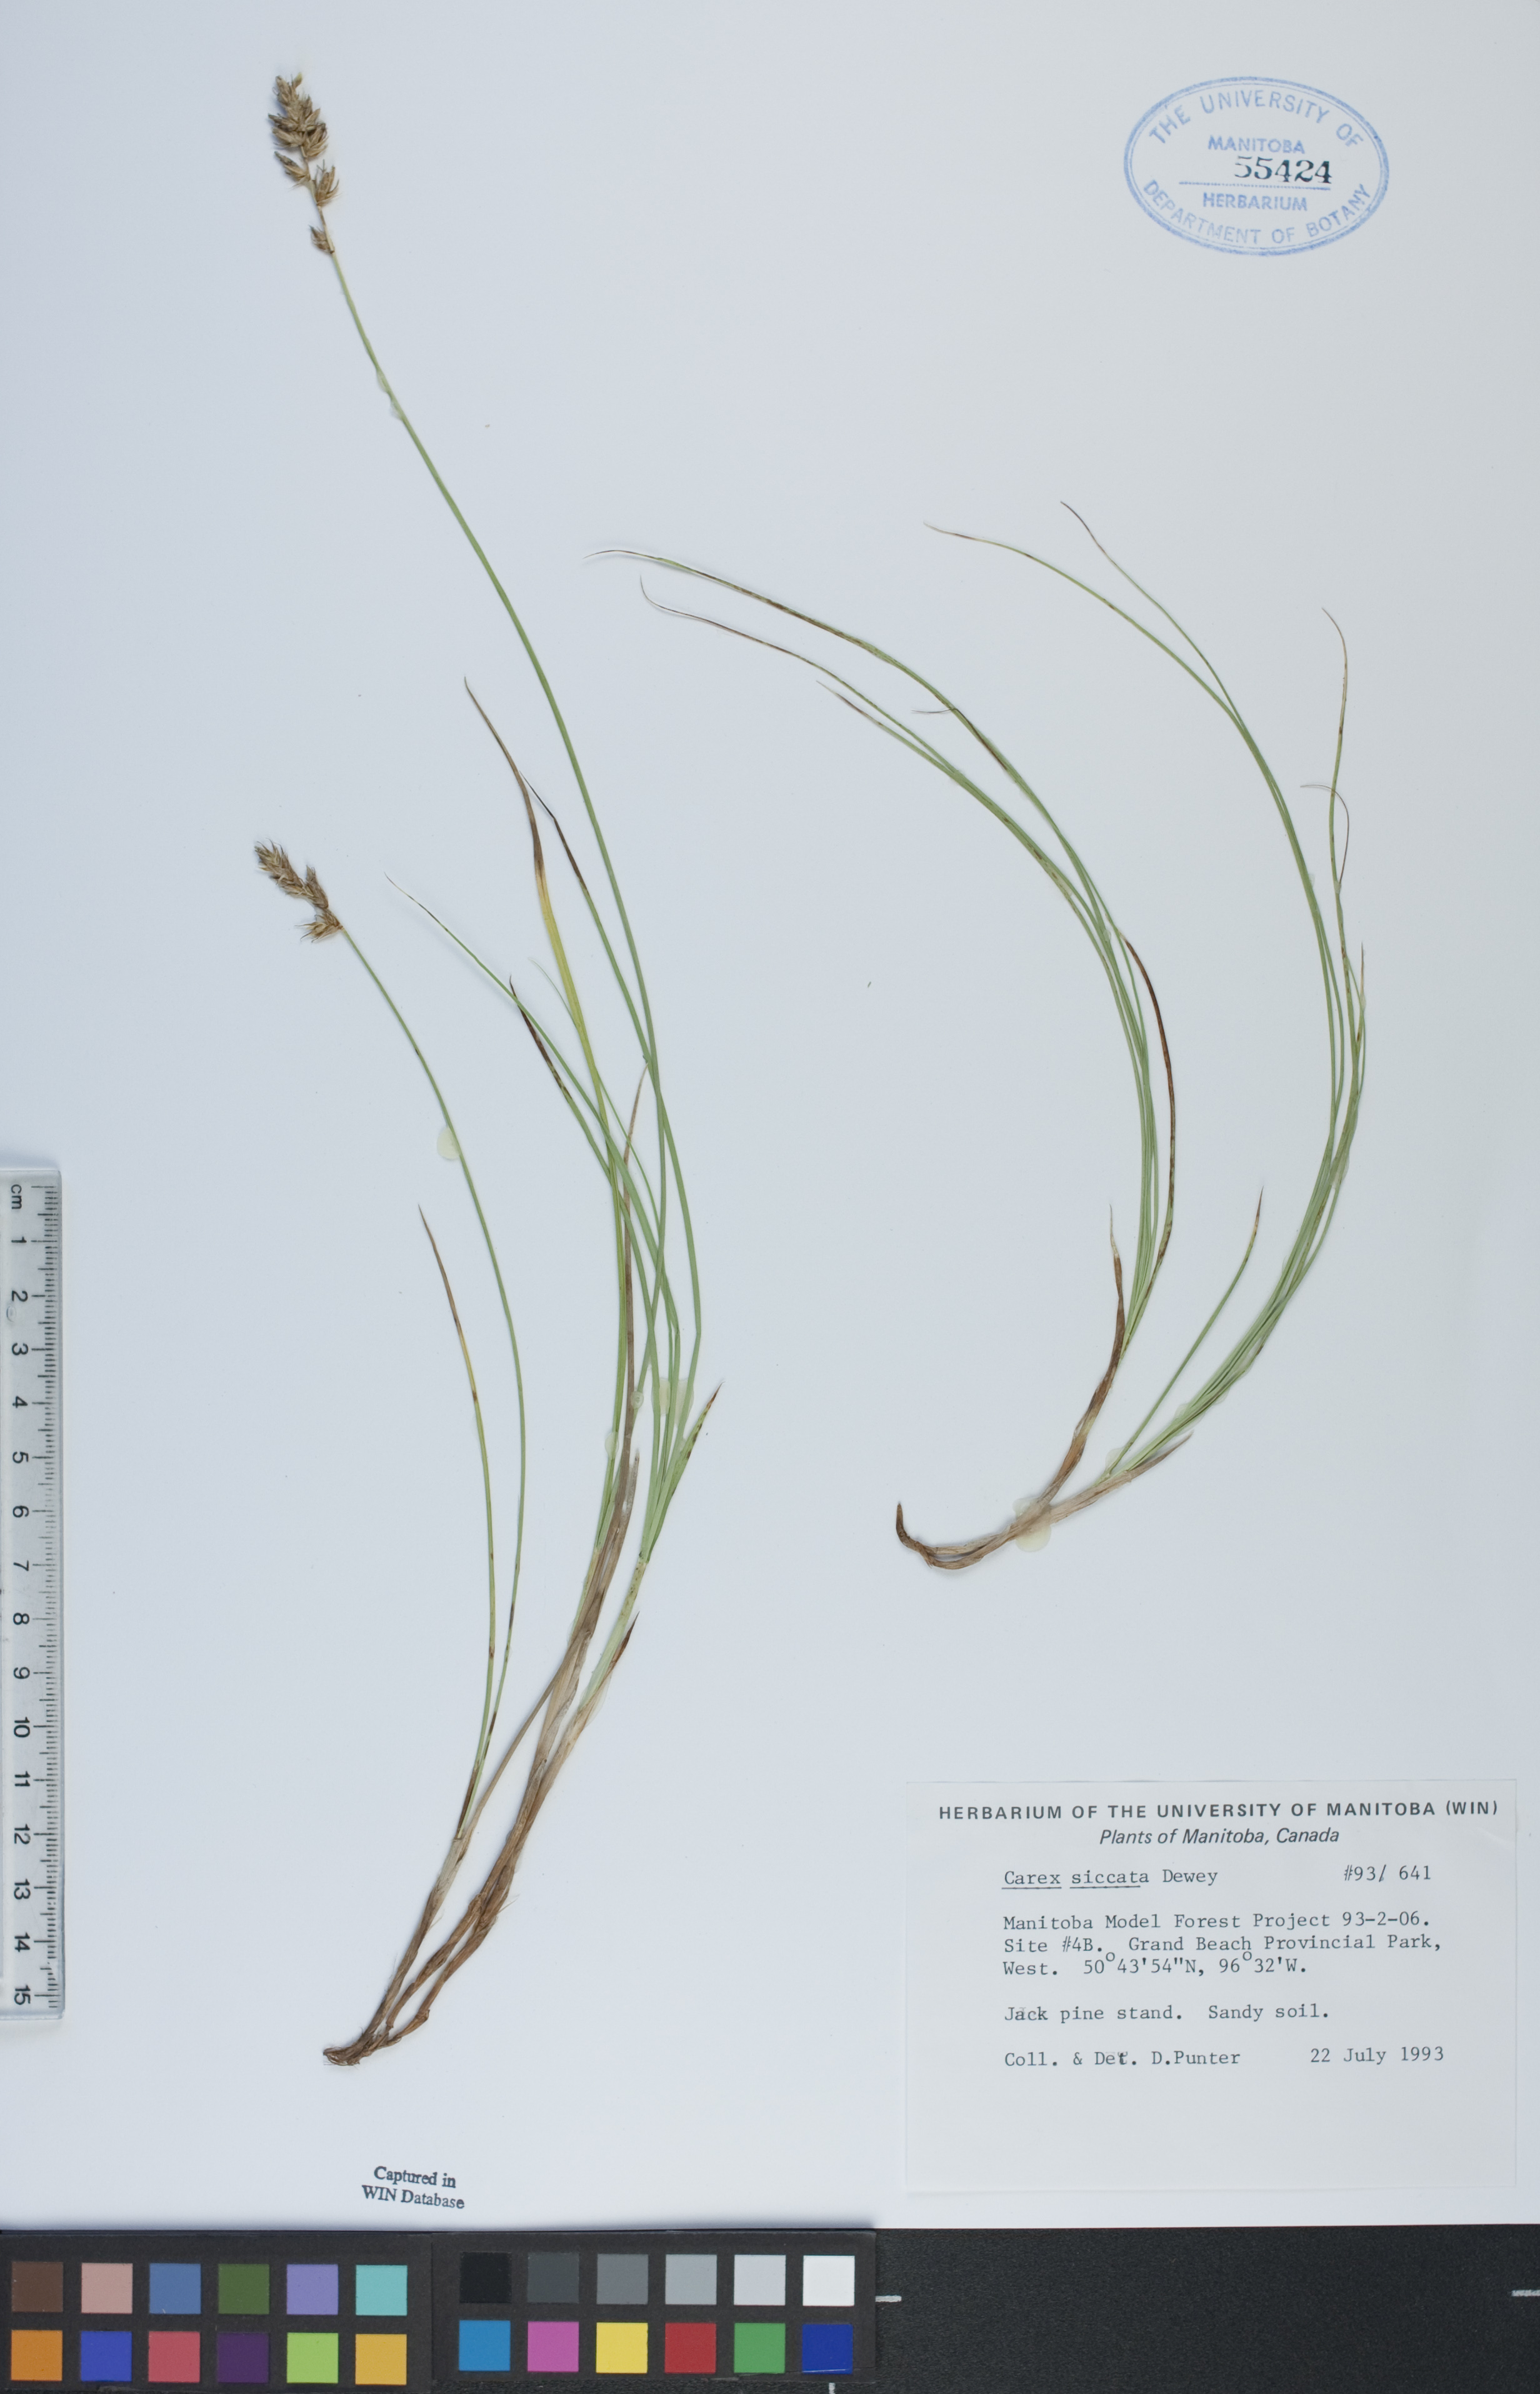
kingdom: Plantae
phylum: Tracheophyta
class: Liliopsida
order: Poales
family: Cyperaceae
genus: Carex
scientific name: Carex siccata
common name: Dry sedge
